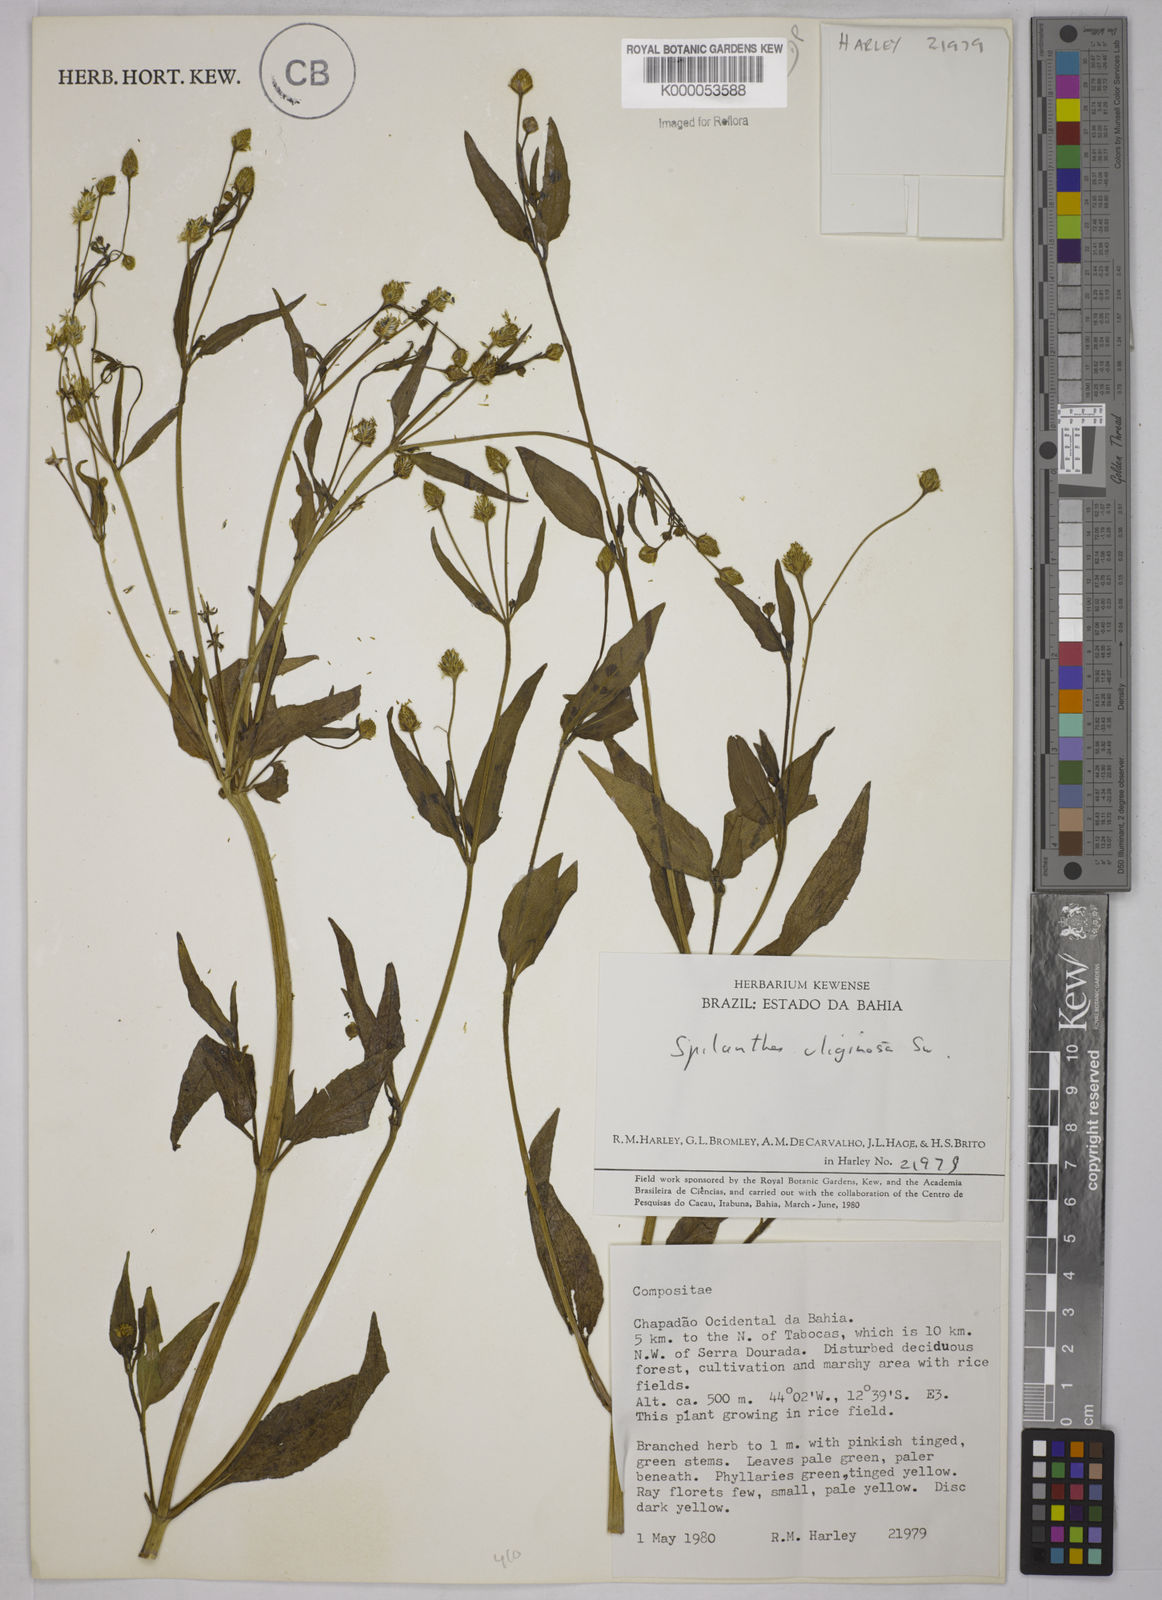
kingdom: Plantae
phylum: Tracheophyta
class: Magnoliopsida
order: Asterales
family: Asteraceae
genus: Acmella
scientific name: Acmella uliginosa
